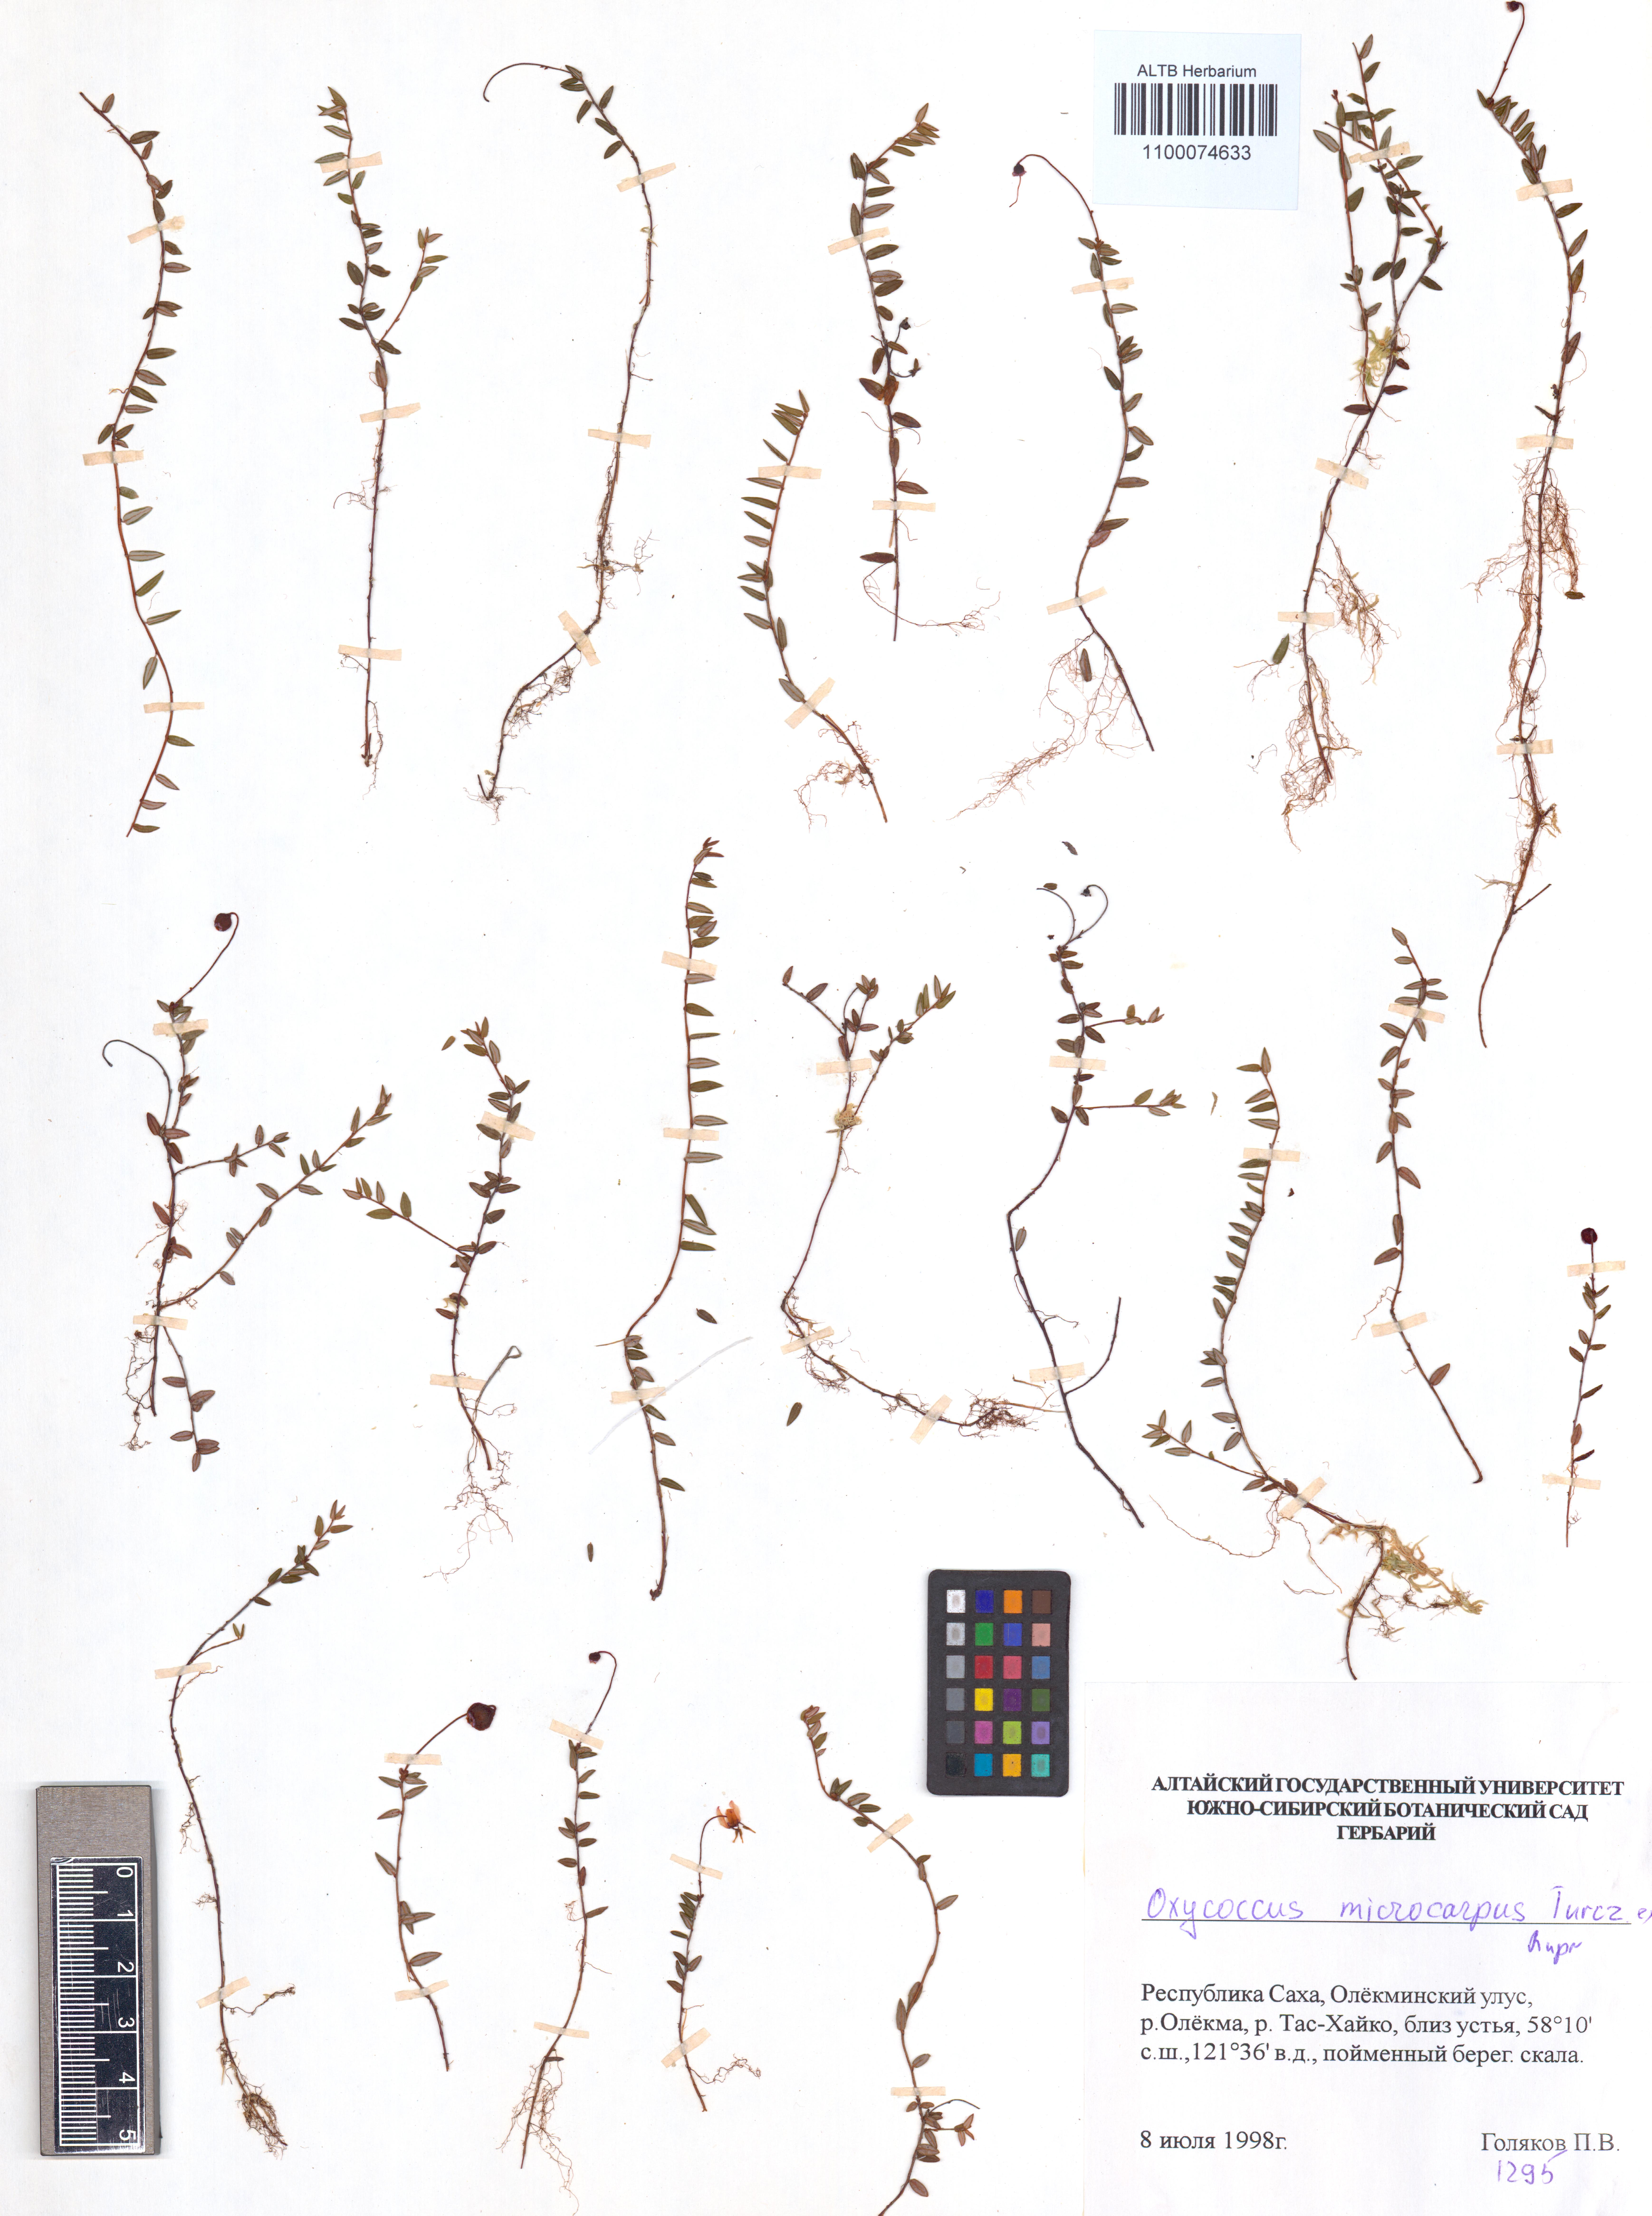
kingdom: Plantae
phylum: Tracheophyta
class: Magnoliopsida
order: Ericales
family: Ericaceae
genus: Vaccinium
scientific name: Vaccinium microcarpum
